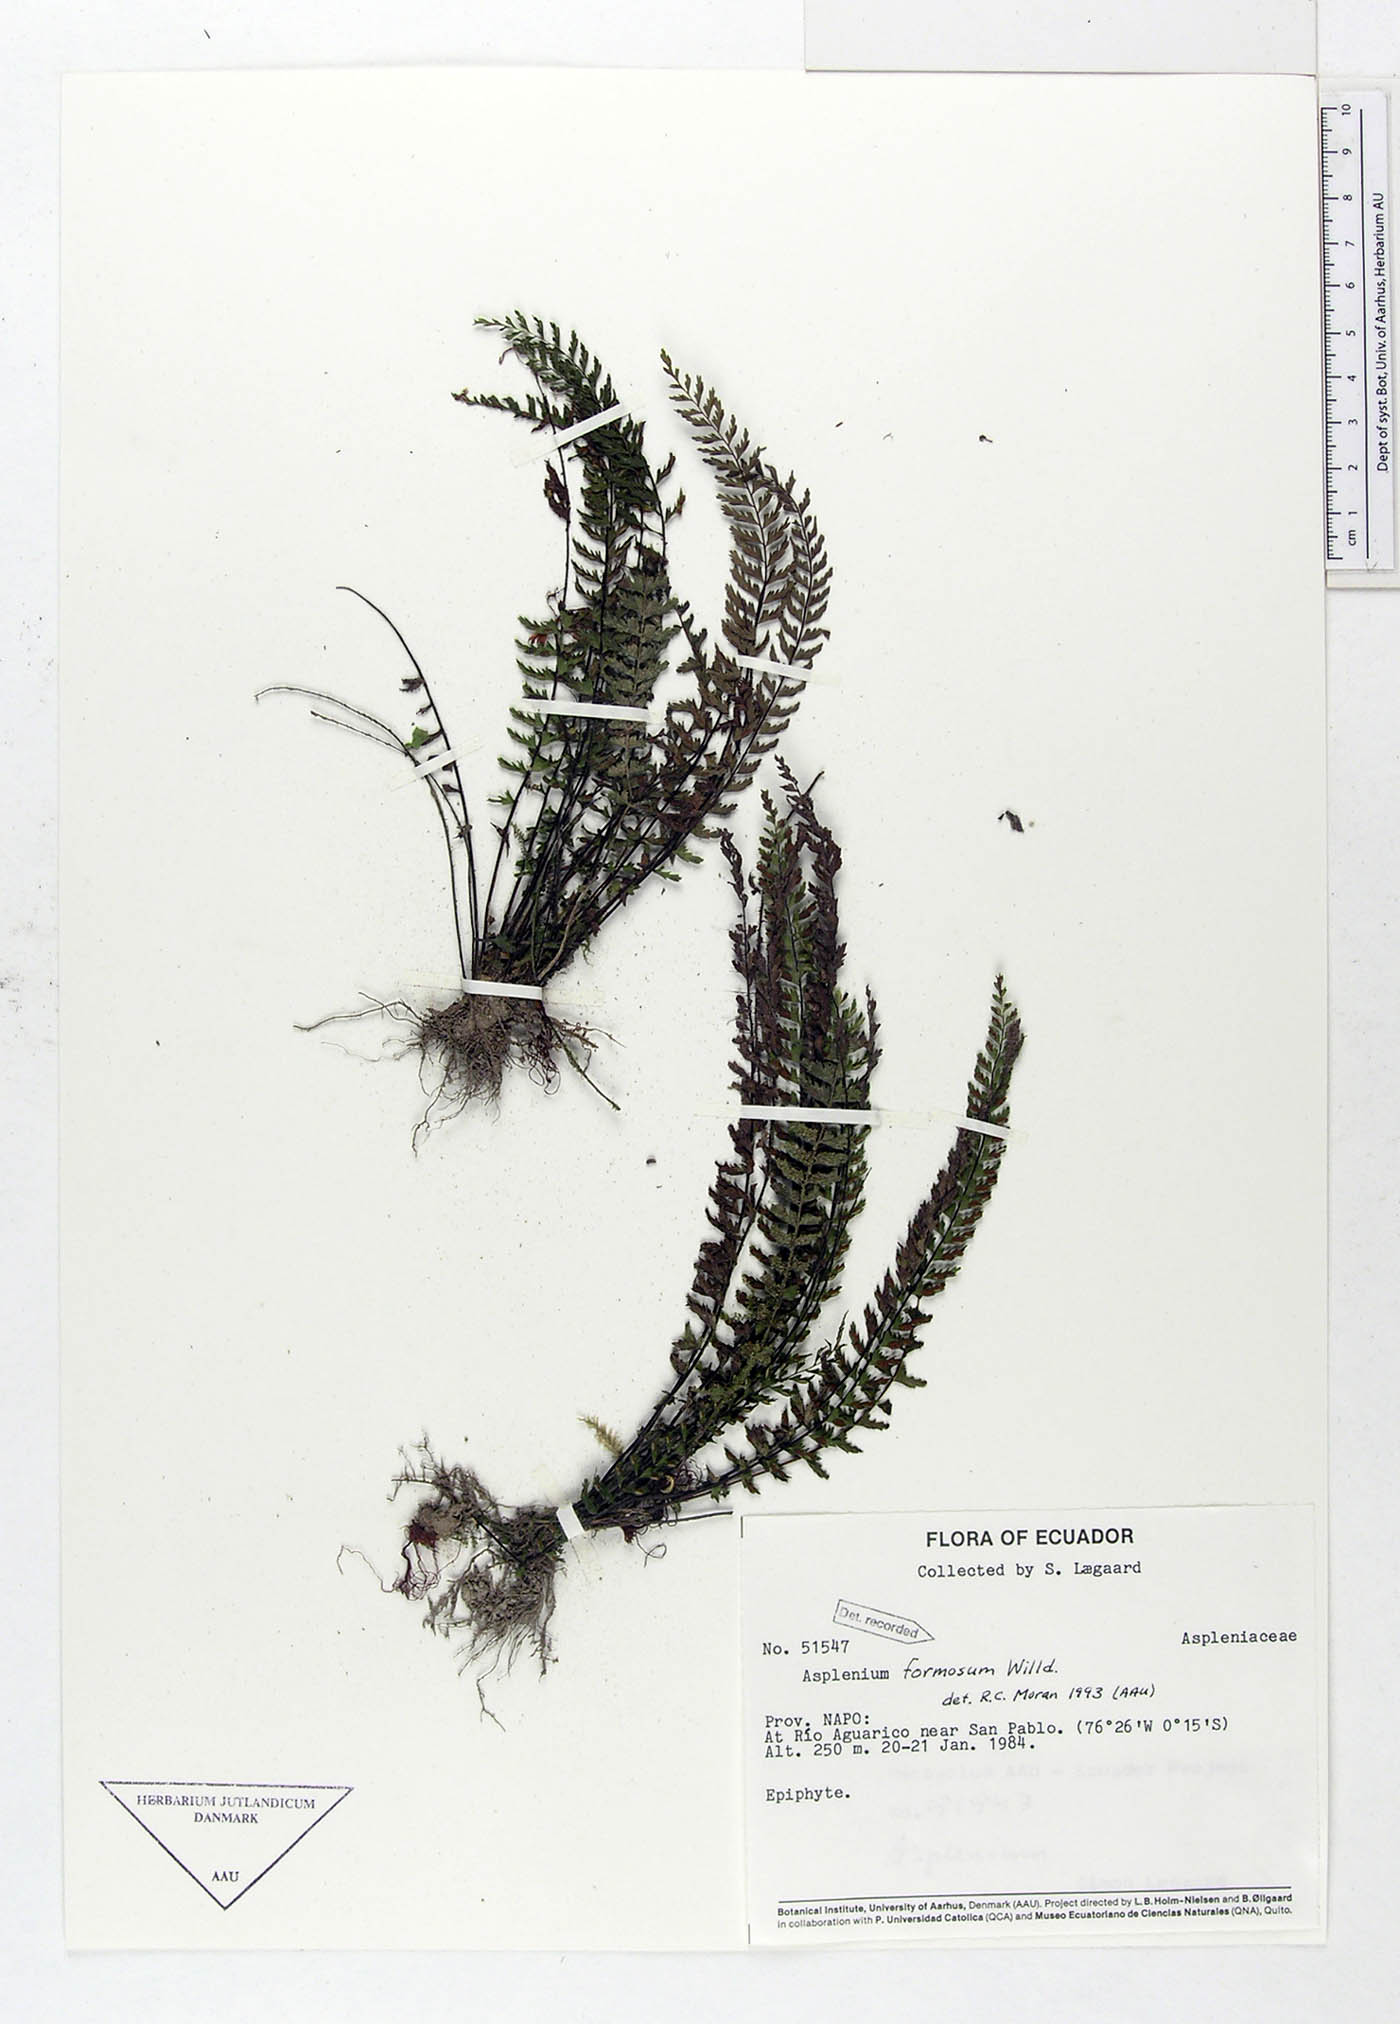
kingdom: Plantae
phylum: Tracheophyta
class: Polypodiopsida
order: Polypodiales
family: Aspleniaceae
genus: Asplenium
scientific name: Asplenium formosum
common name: Showy spleenwort
